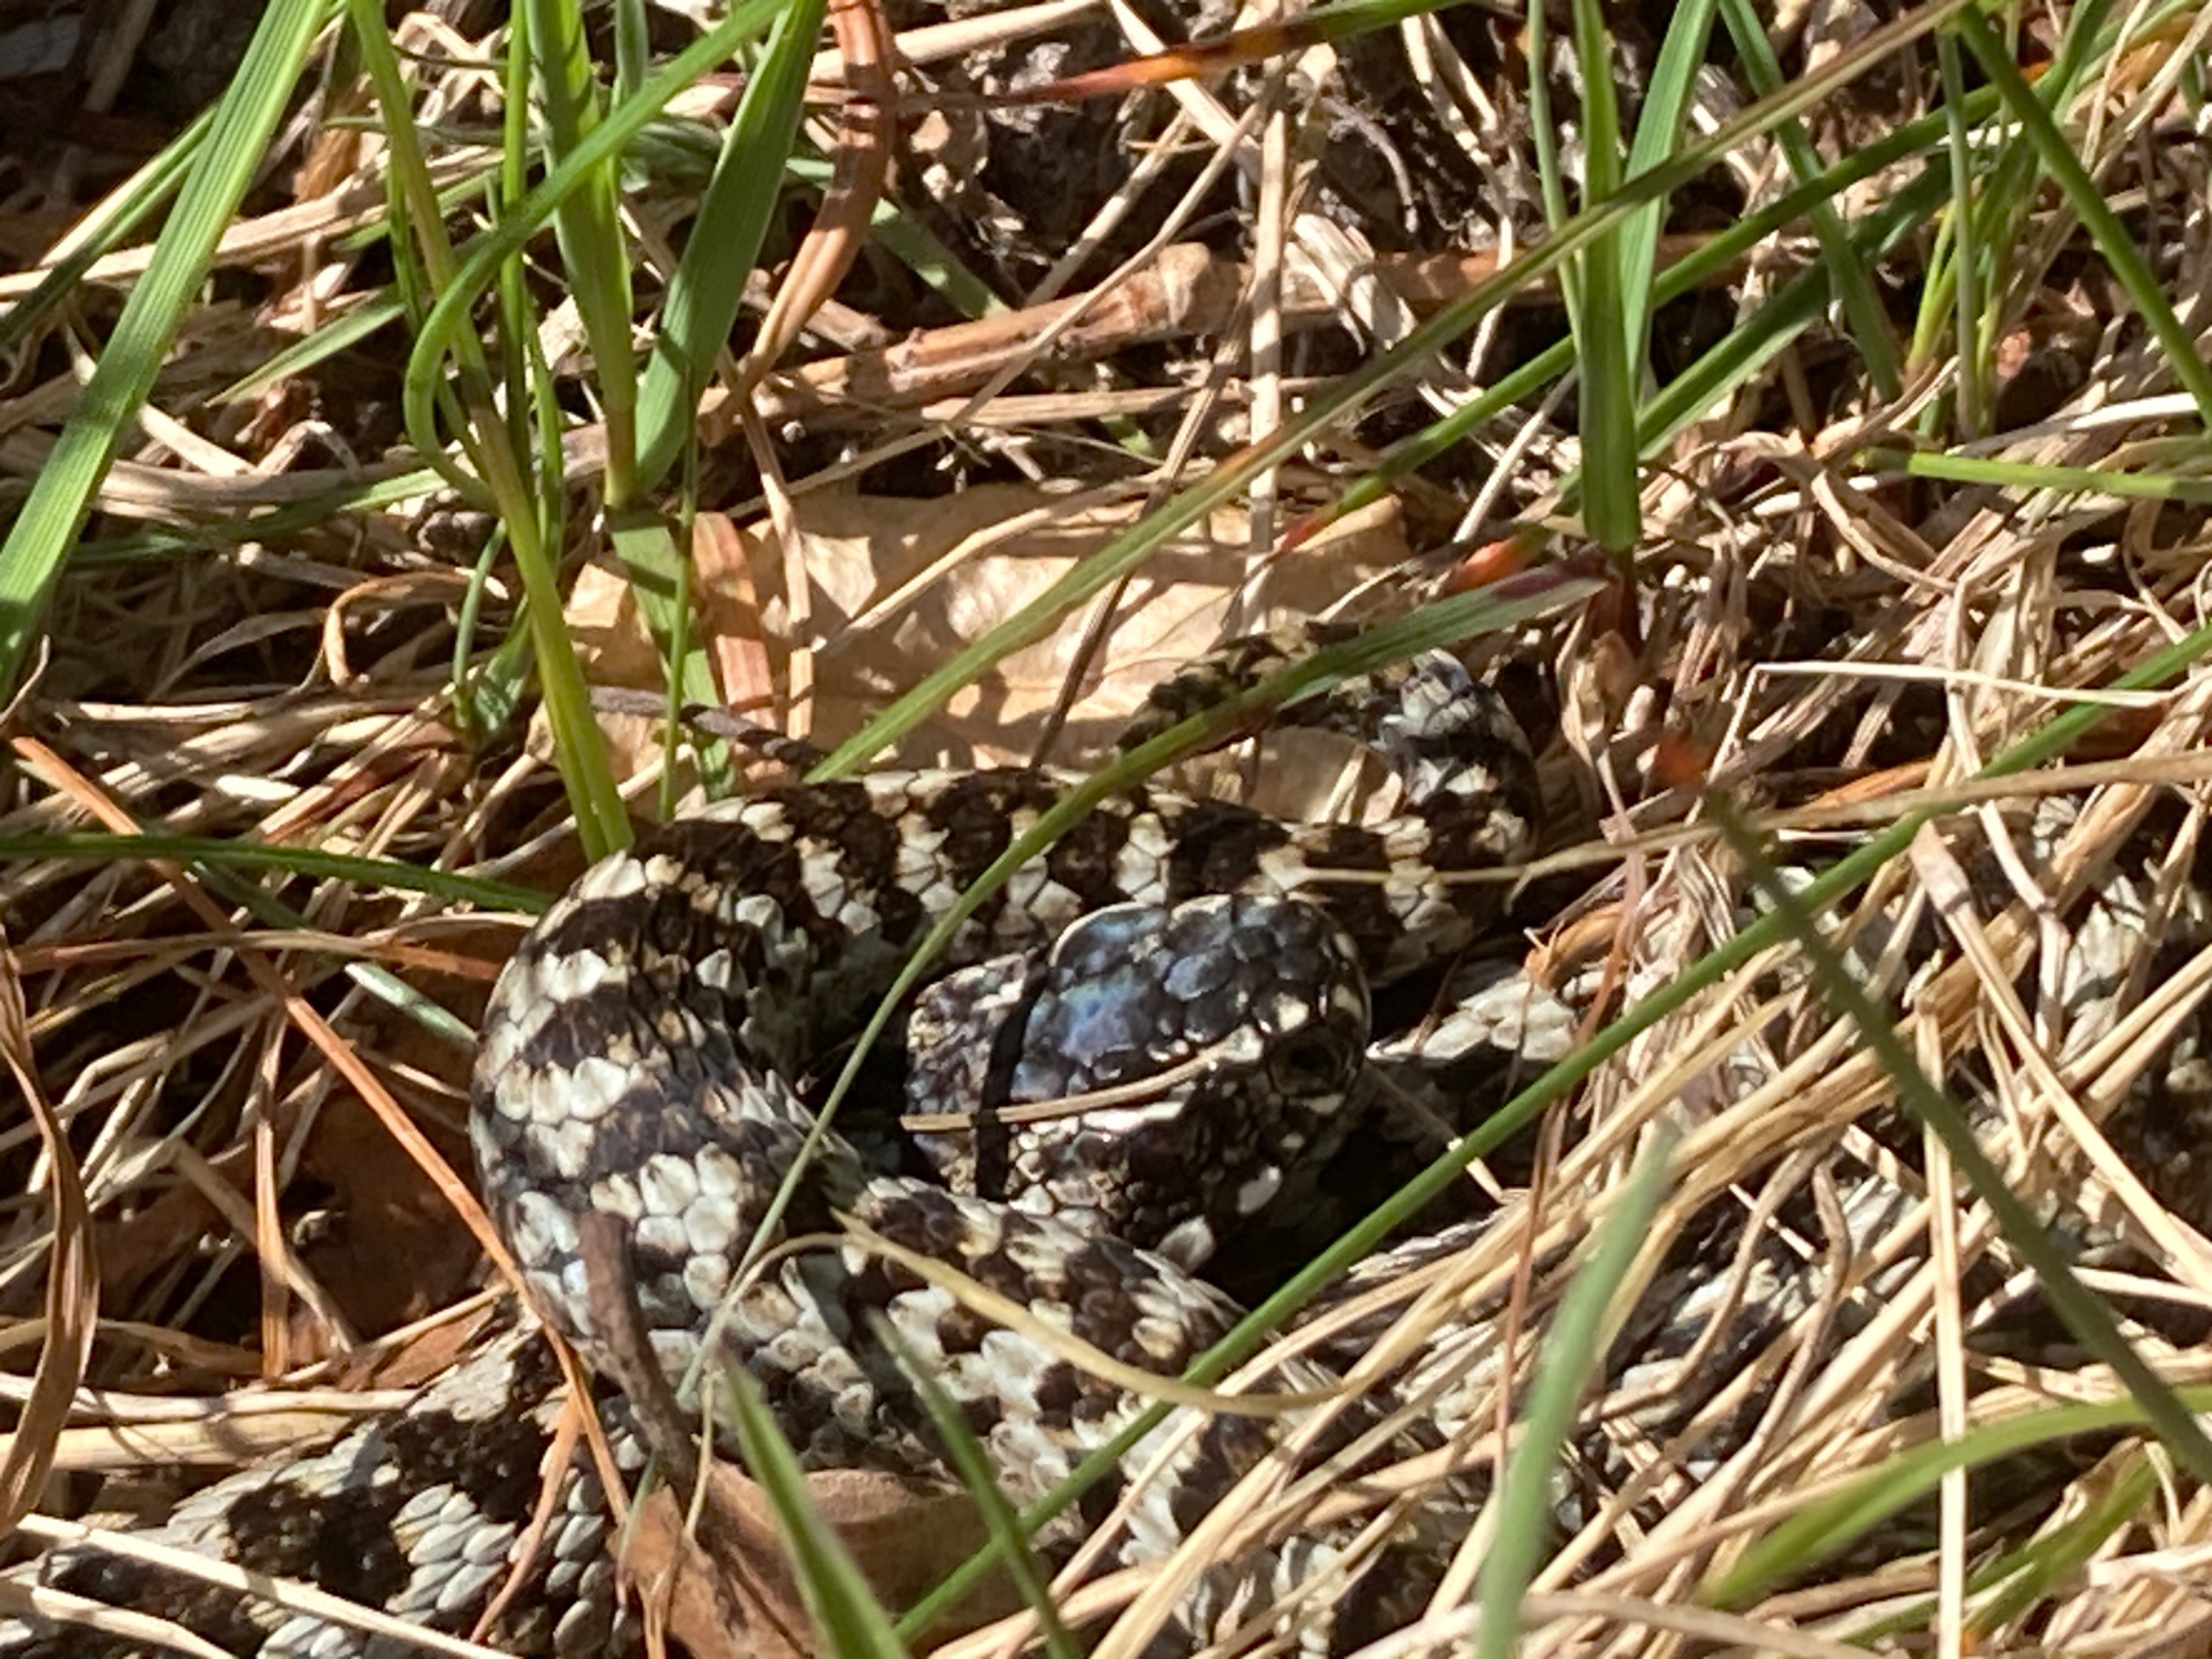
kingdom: Animalia
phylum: Chordata
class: Squamata
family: Viperidae
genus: Vipera
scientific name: Vipera berus
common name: Hugorm
